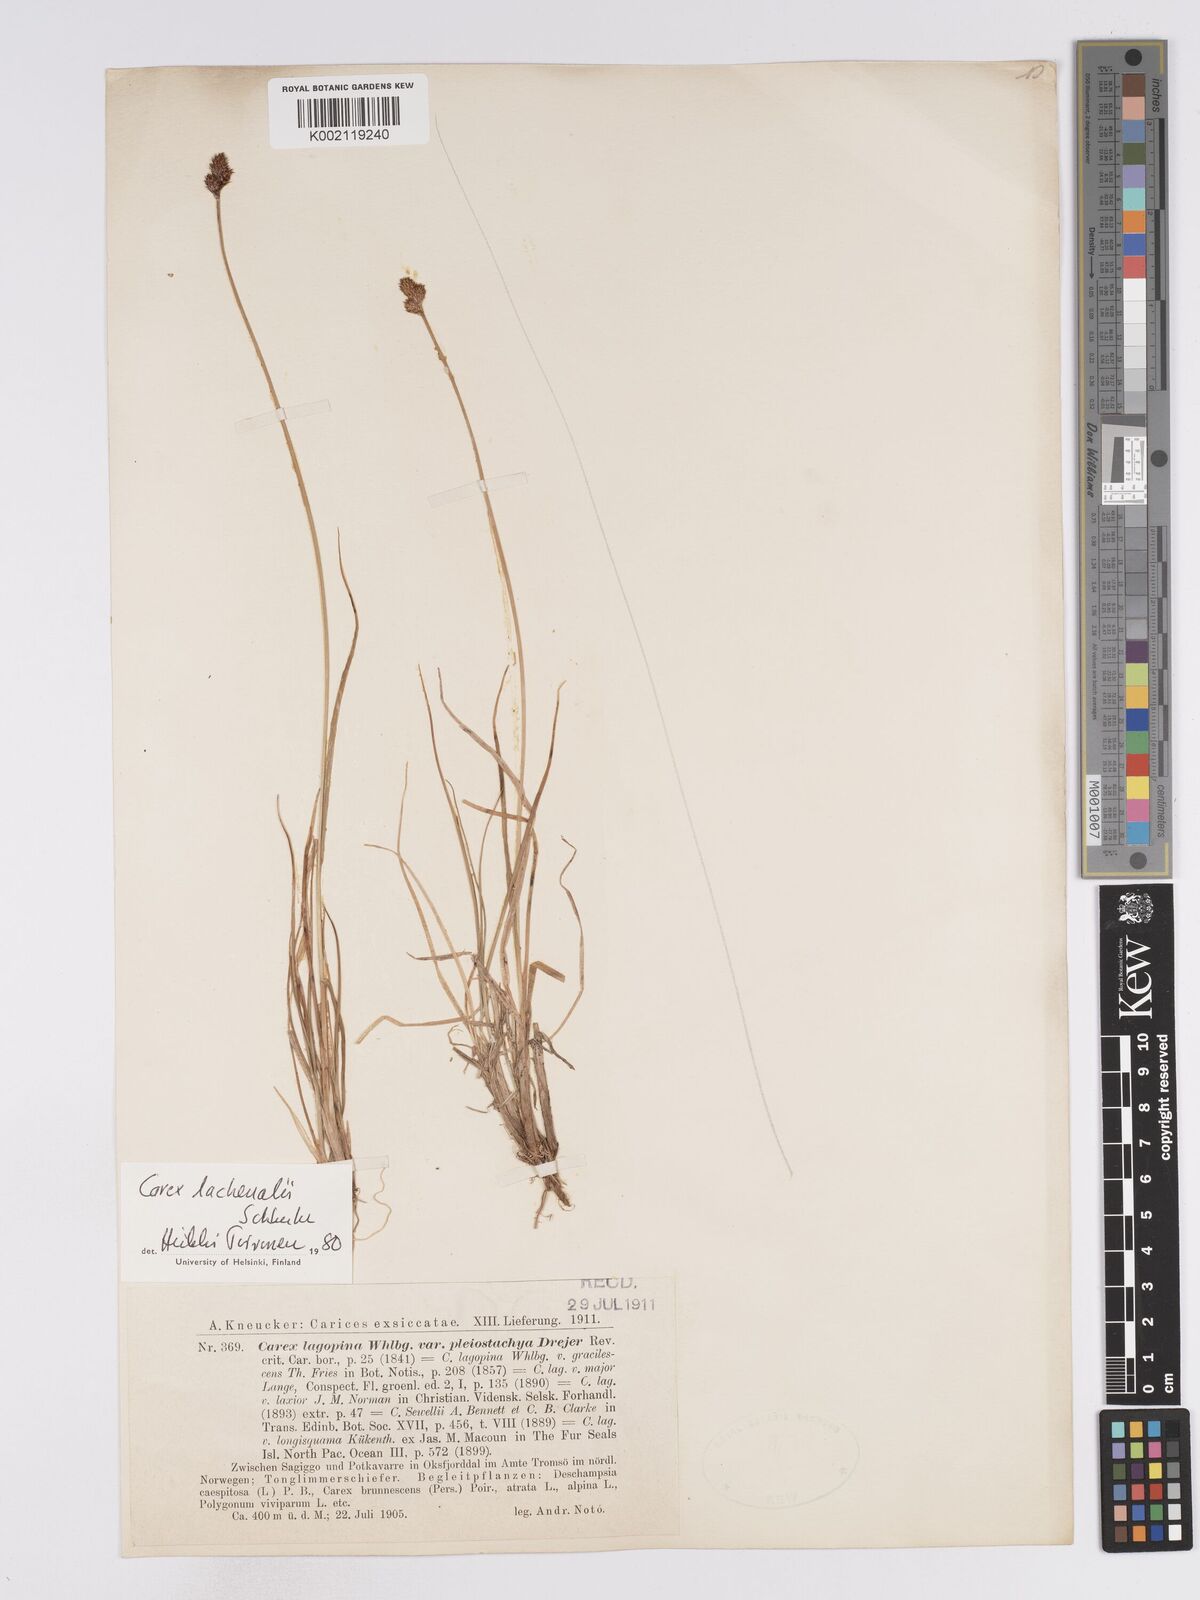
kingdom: Plantae
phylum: Tracheophyta
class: Liliopsida
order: Poales
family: Cyperaceae
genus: Carex
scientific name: Carex lachenalii
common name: Hare's-foot sedge
